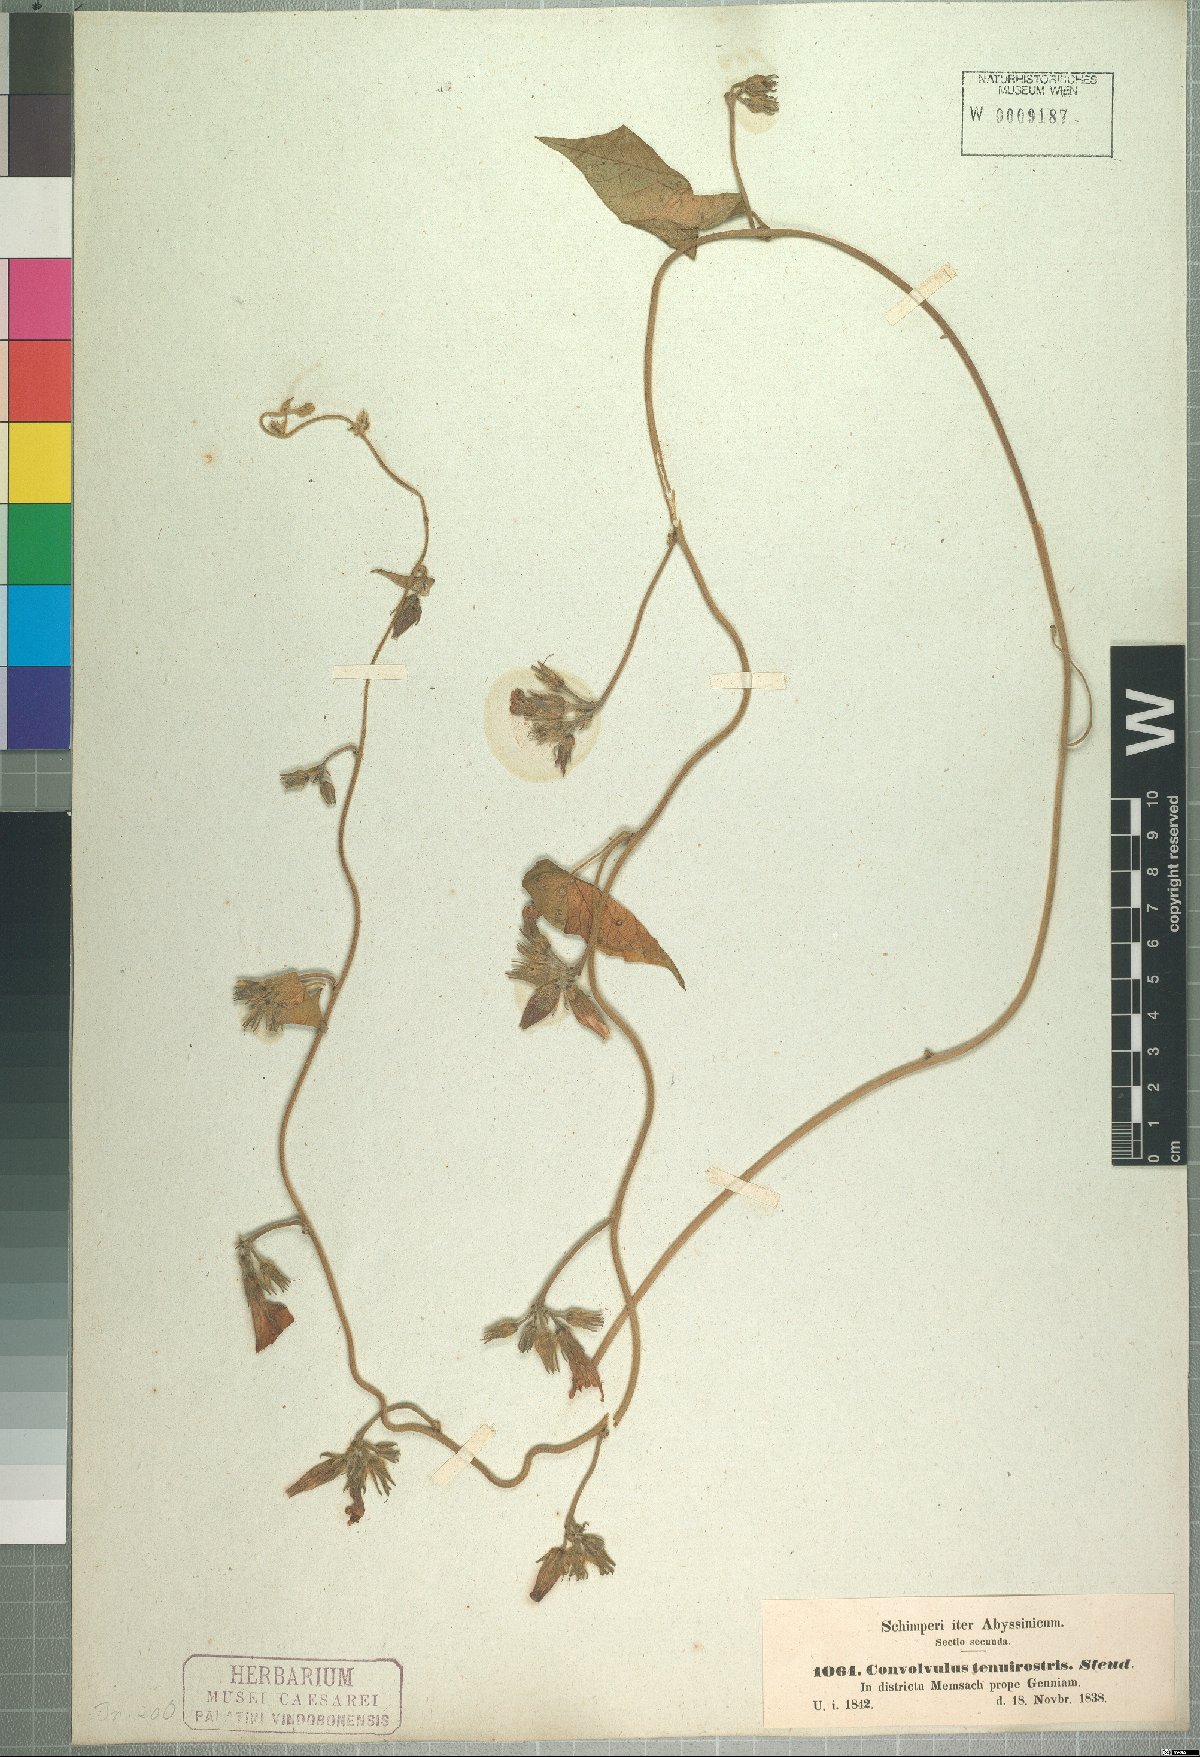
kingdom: Plantae
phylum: Tracheophyta
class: Magnoliopsida
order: Solanales
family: Convolvulaceae
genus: Ipomoea
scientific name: Ipomoea tenuirostris
